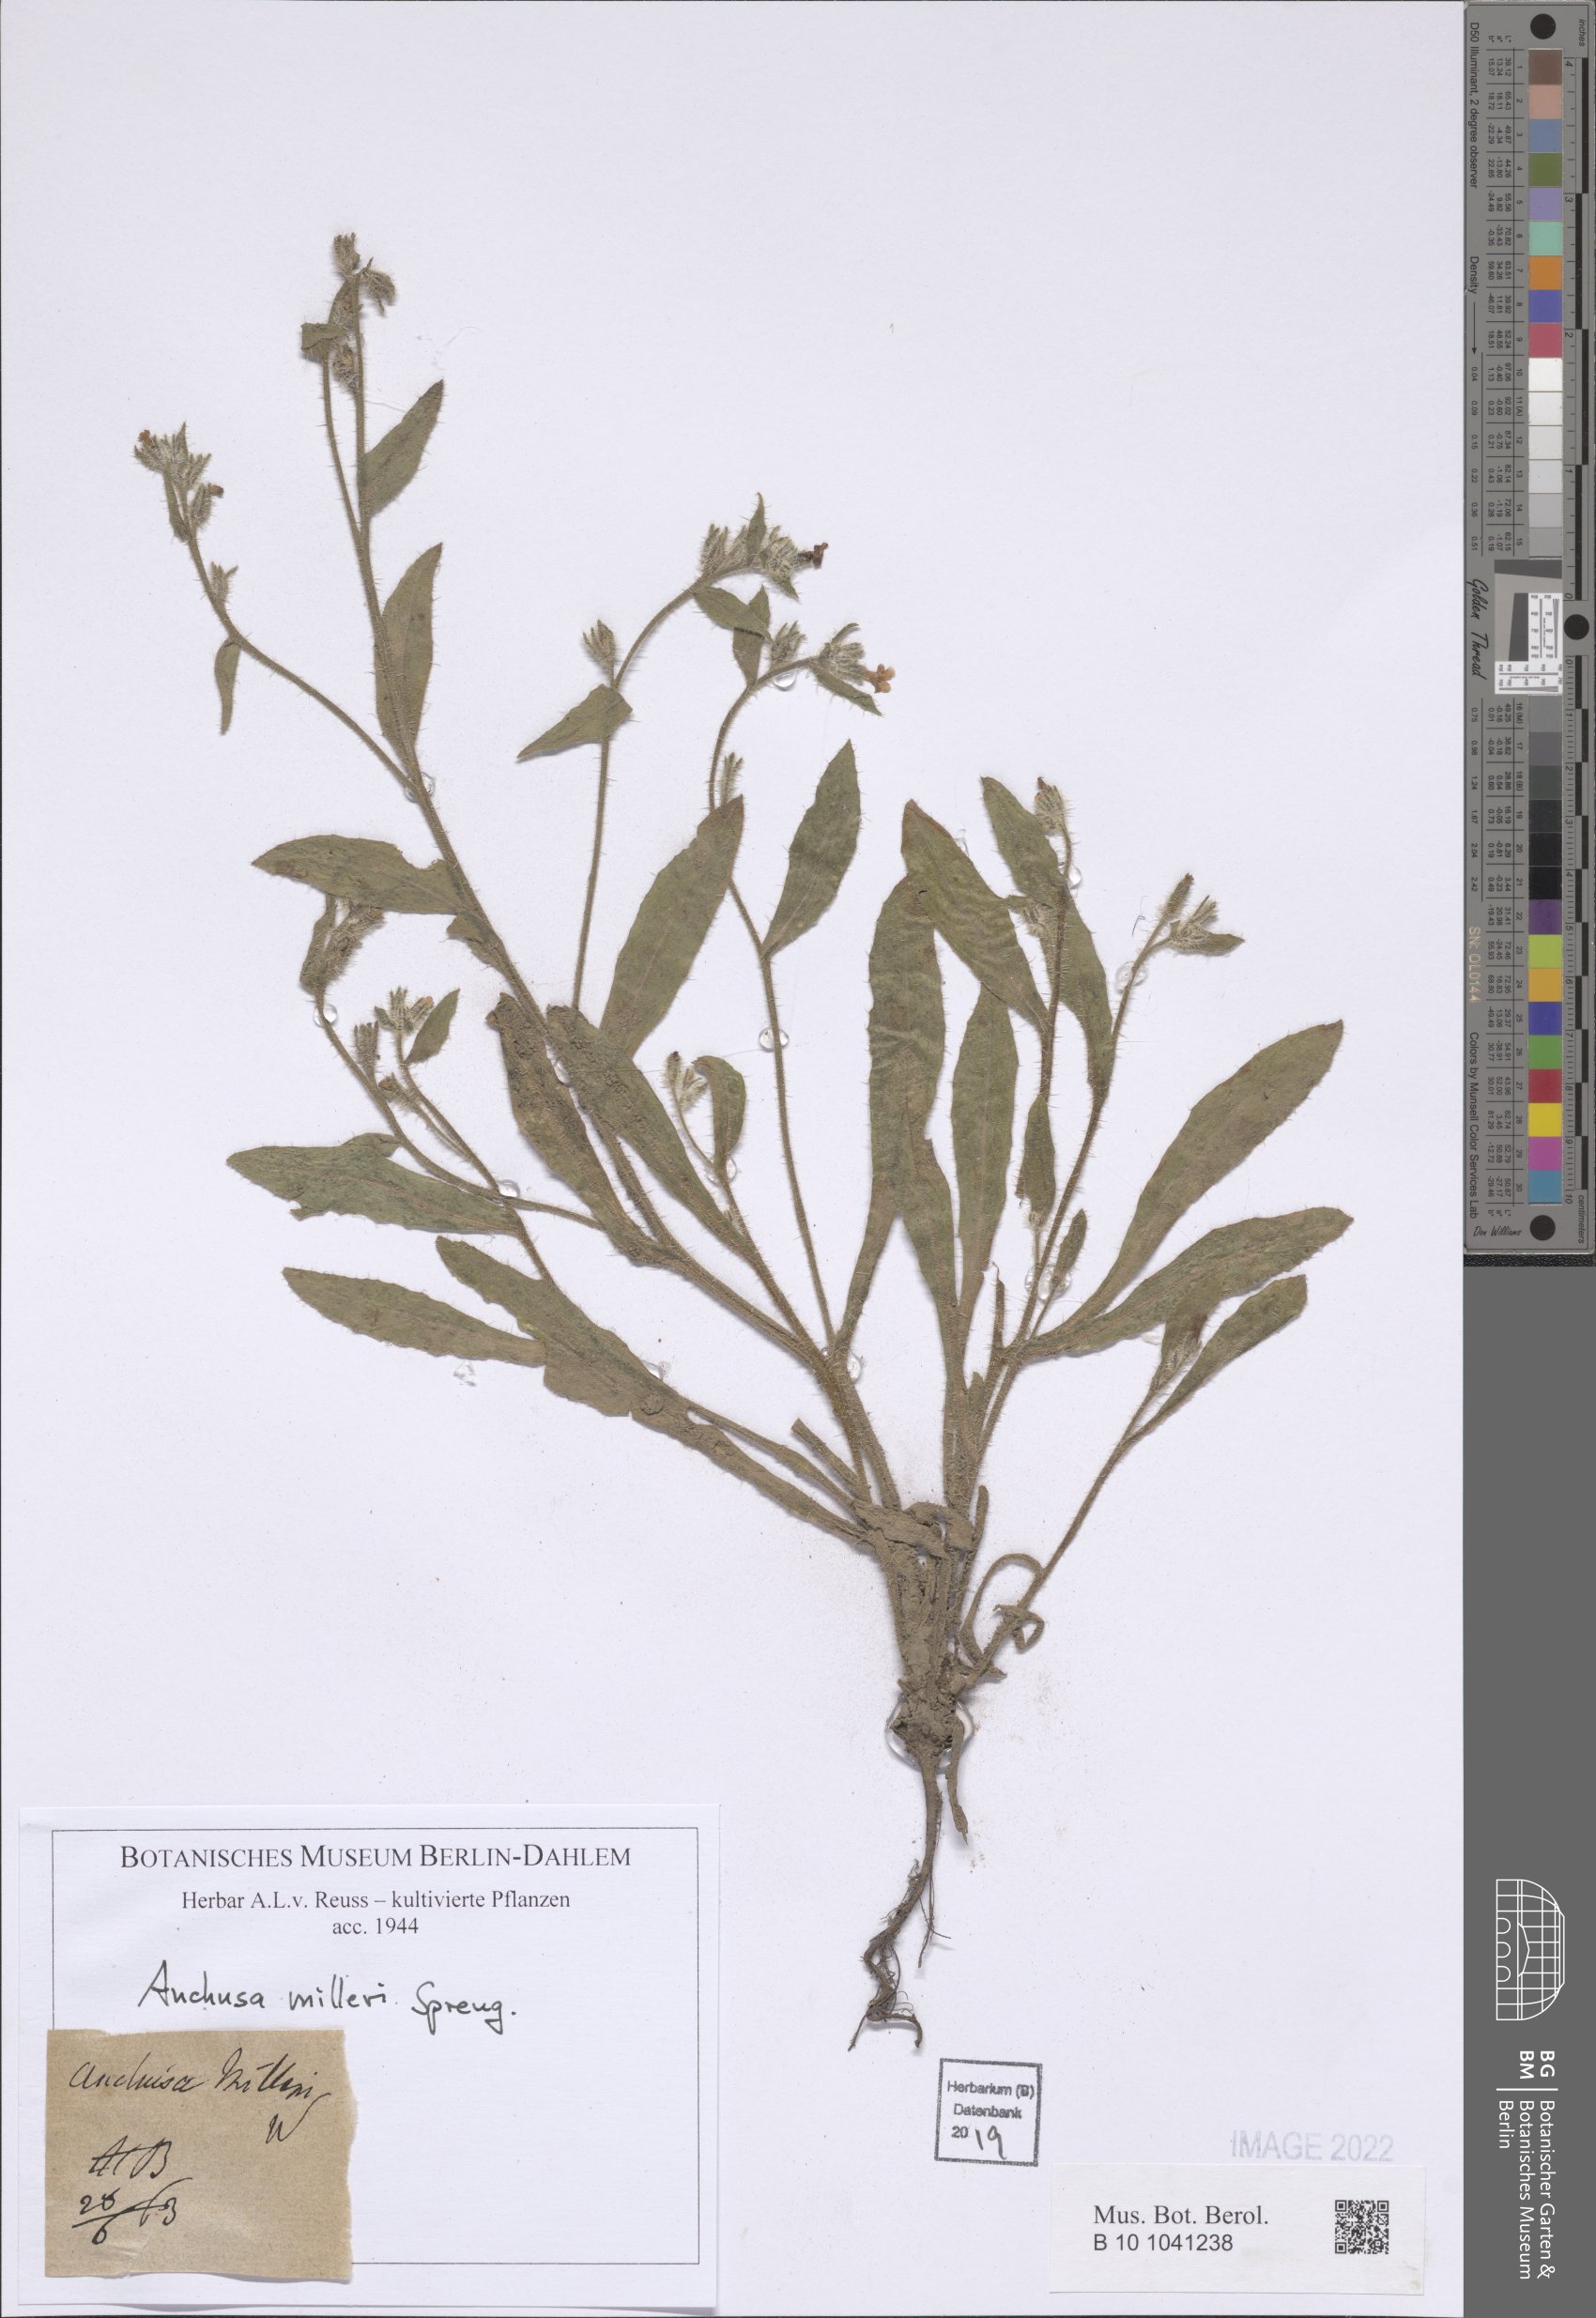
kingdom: Plantae
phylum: Tracheophyta
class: Magnoliopsida
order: Boraginales
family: Boraginaceae
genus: Anchusa
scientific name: Anchusa milleri
